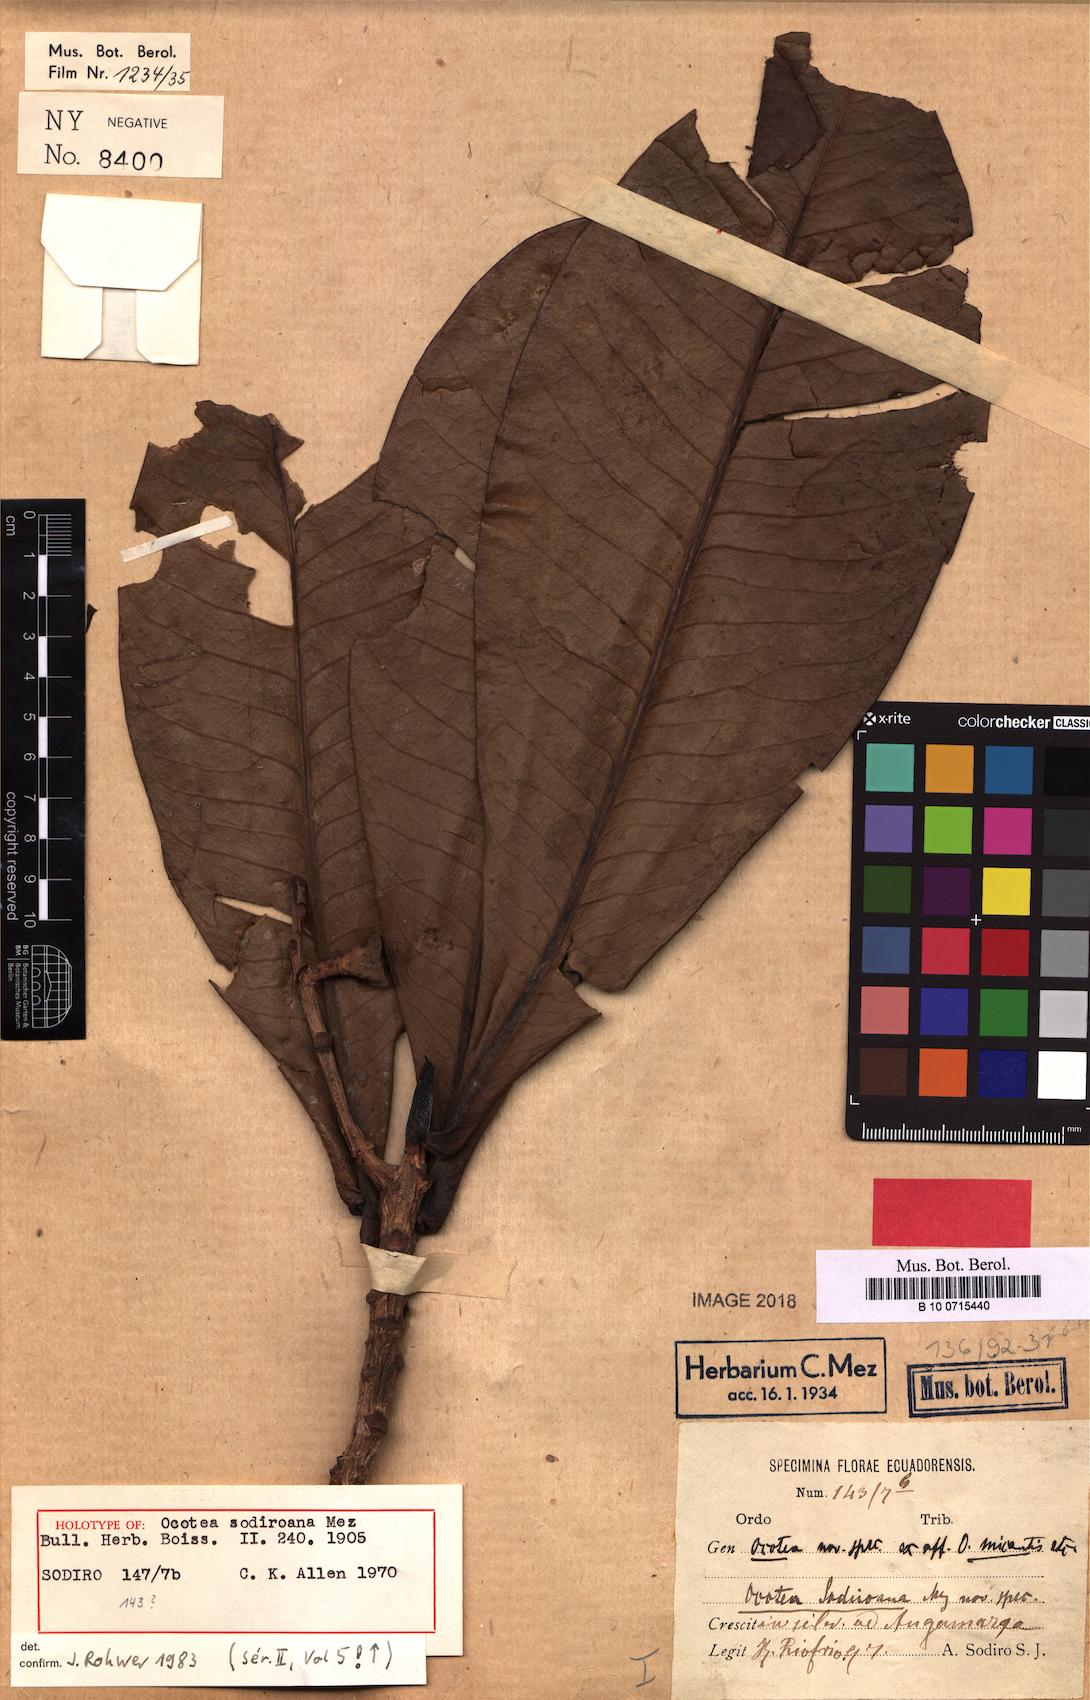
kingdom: Plantae
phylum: Tracheophyta
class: Magnoliopsida
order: Laurales
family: Lauraceae
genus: Andea
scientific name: Andea sodiroana
